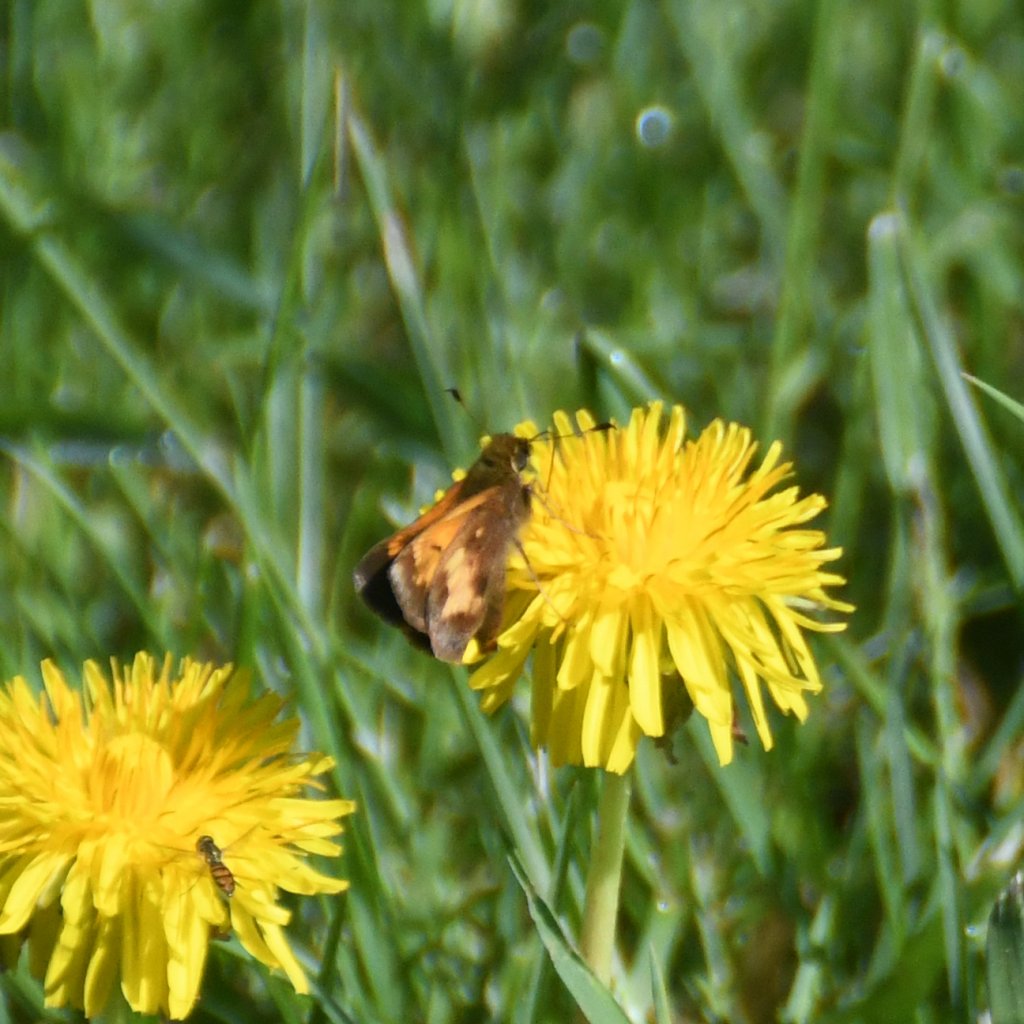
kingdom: Animalia
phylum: Arthropoda
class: Insecta
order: Lepidoptera
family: Hesperiidae
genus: Lon
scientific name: Lon hobomok
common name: Hobomok Skipper
